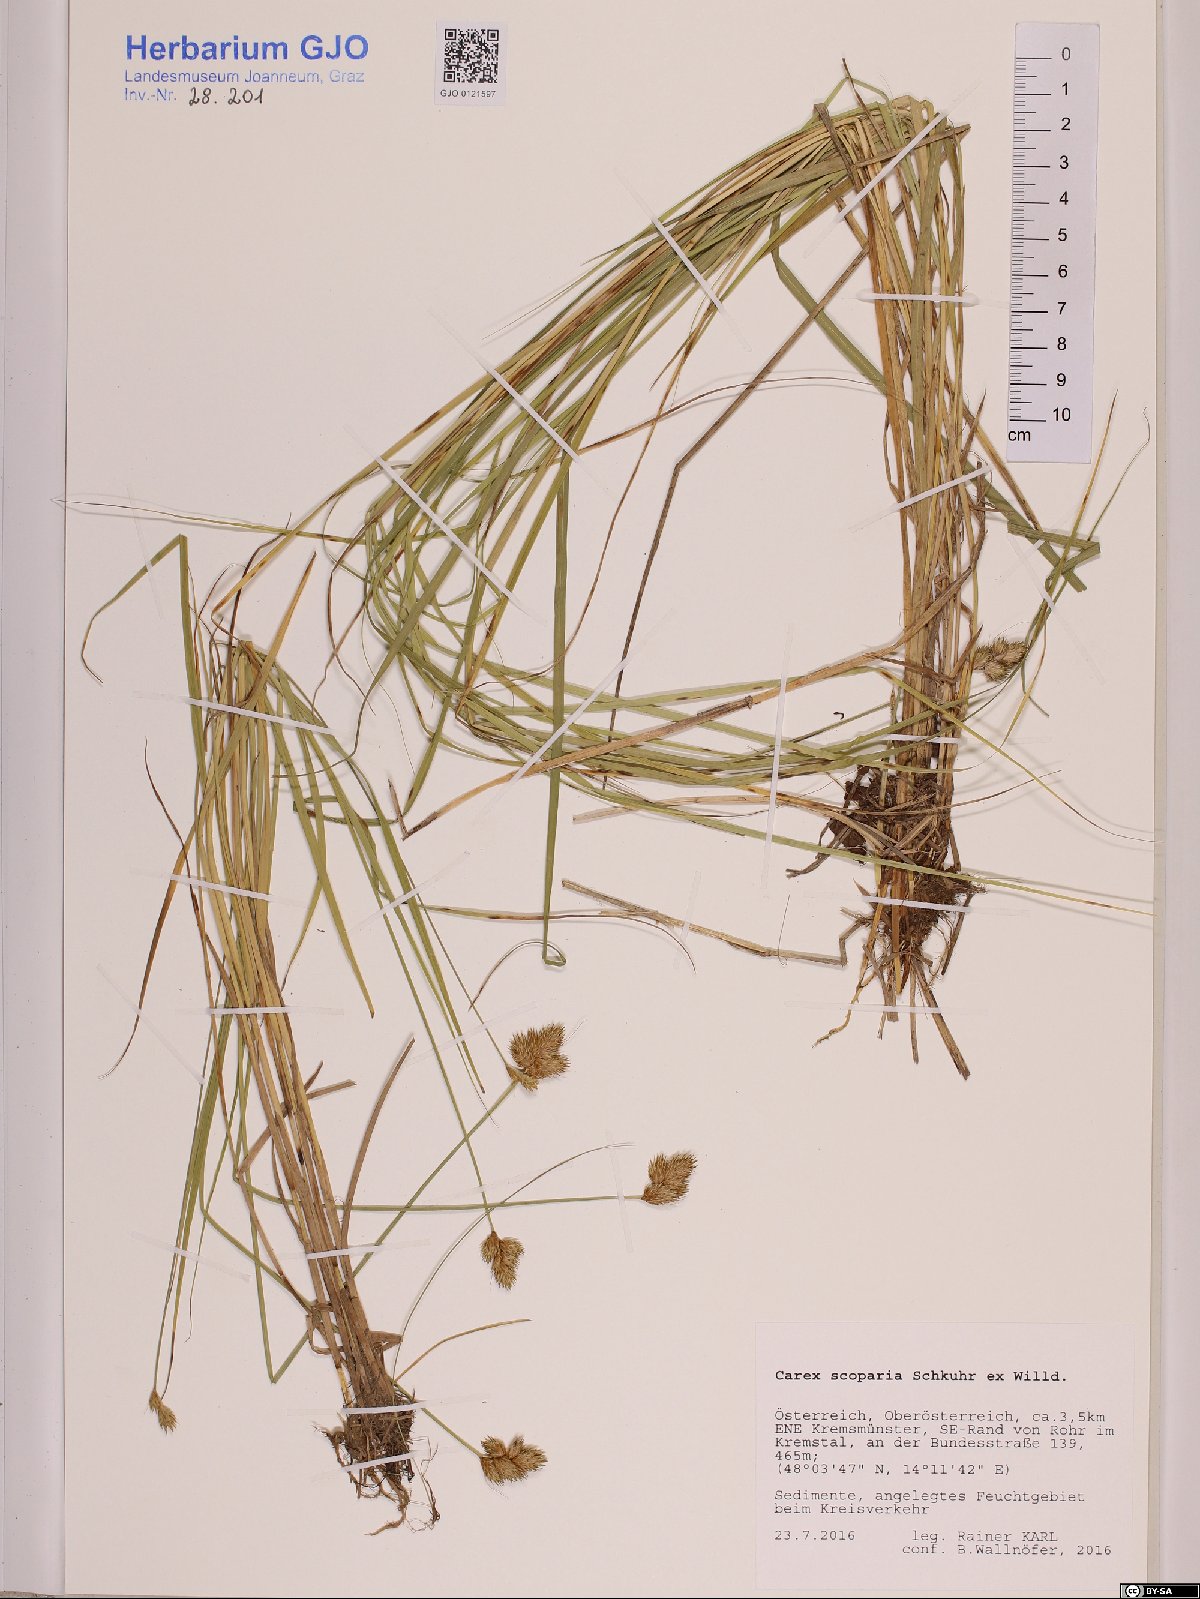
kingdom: Plantae
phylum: Tracheophyta
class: Liliopsida
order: Poales
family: Cyperaceae
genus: Carex
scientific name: Carex scoparia
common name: Broom sedge
